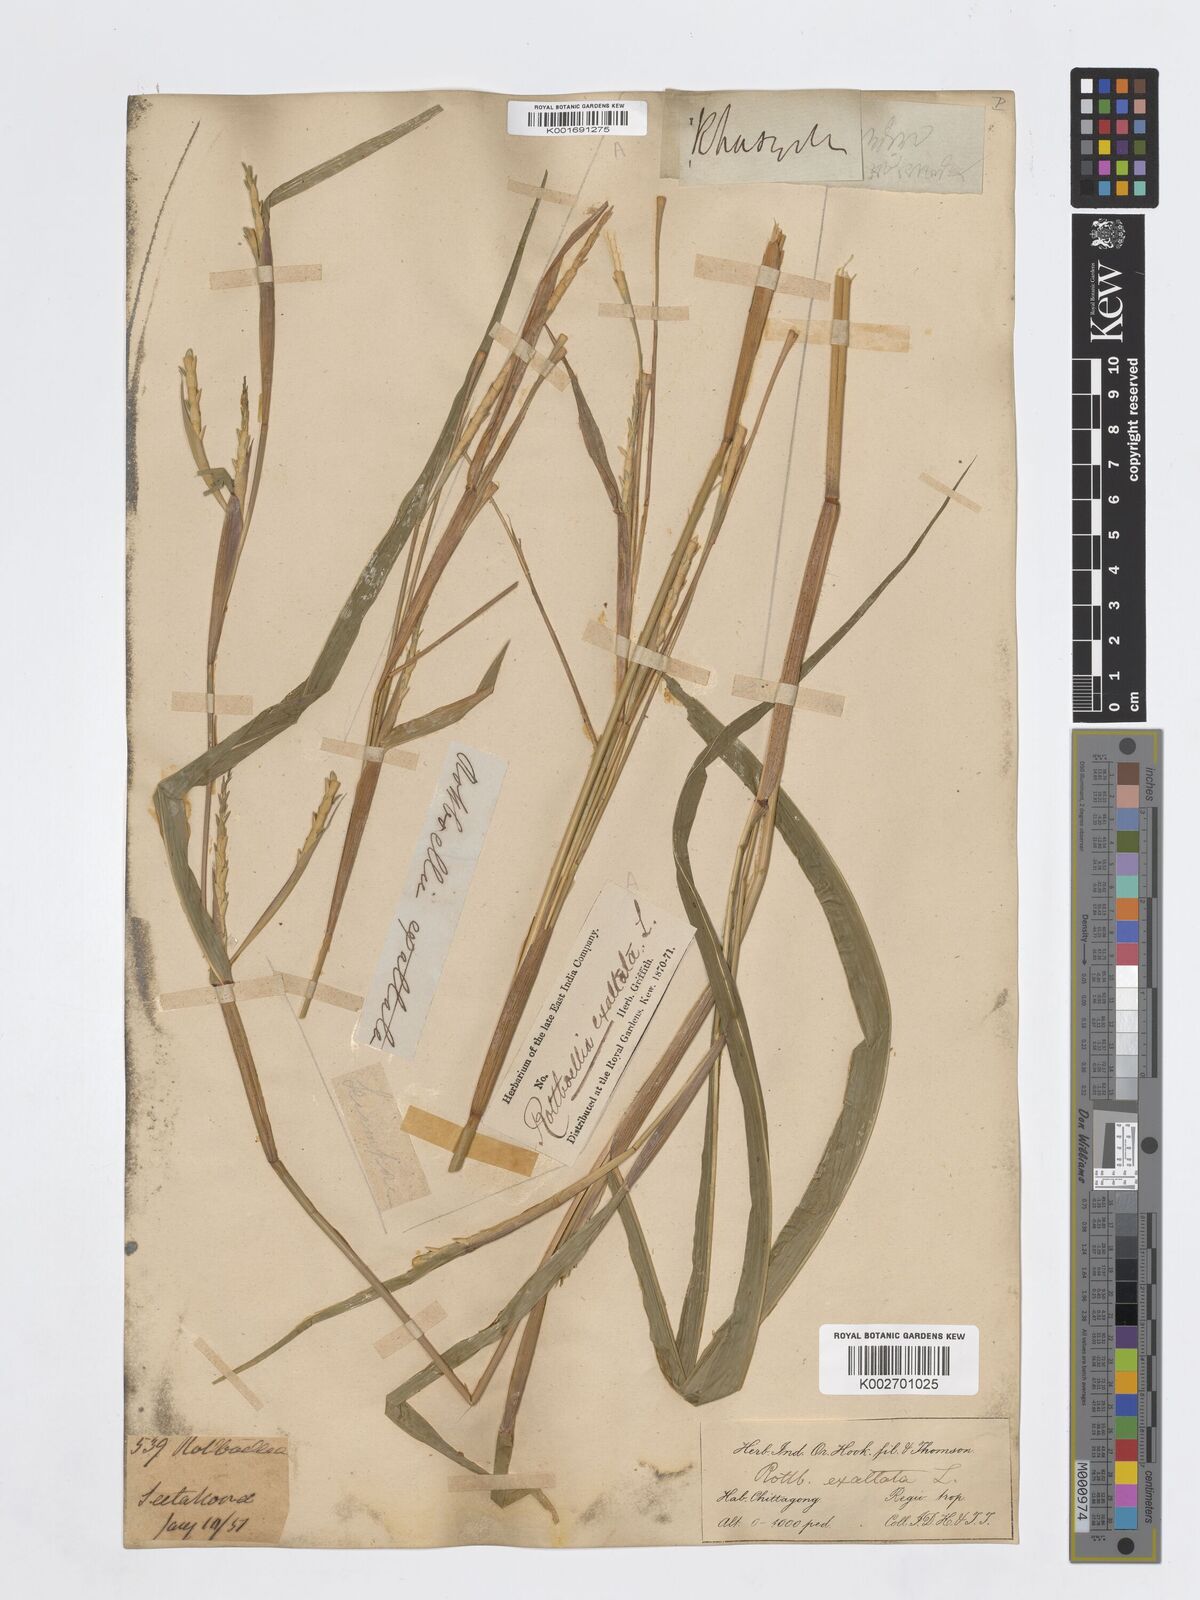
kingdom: Plantae
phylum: Tracheophyta
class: Liliopsida
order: Poales
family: Poaceae
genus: Ophiuros
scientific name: Ophiuros exaltatus
